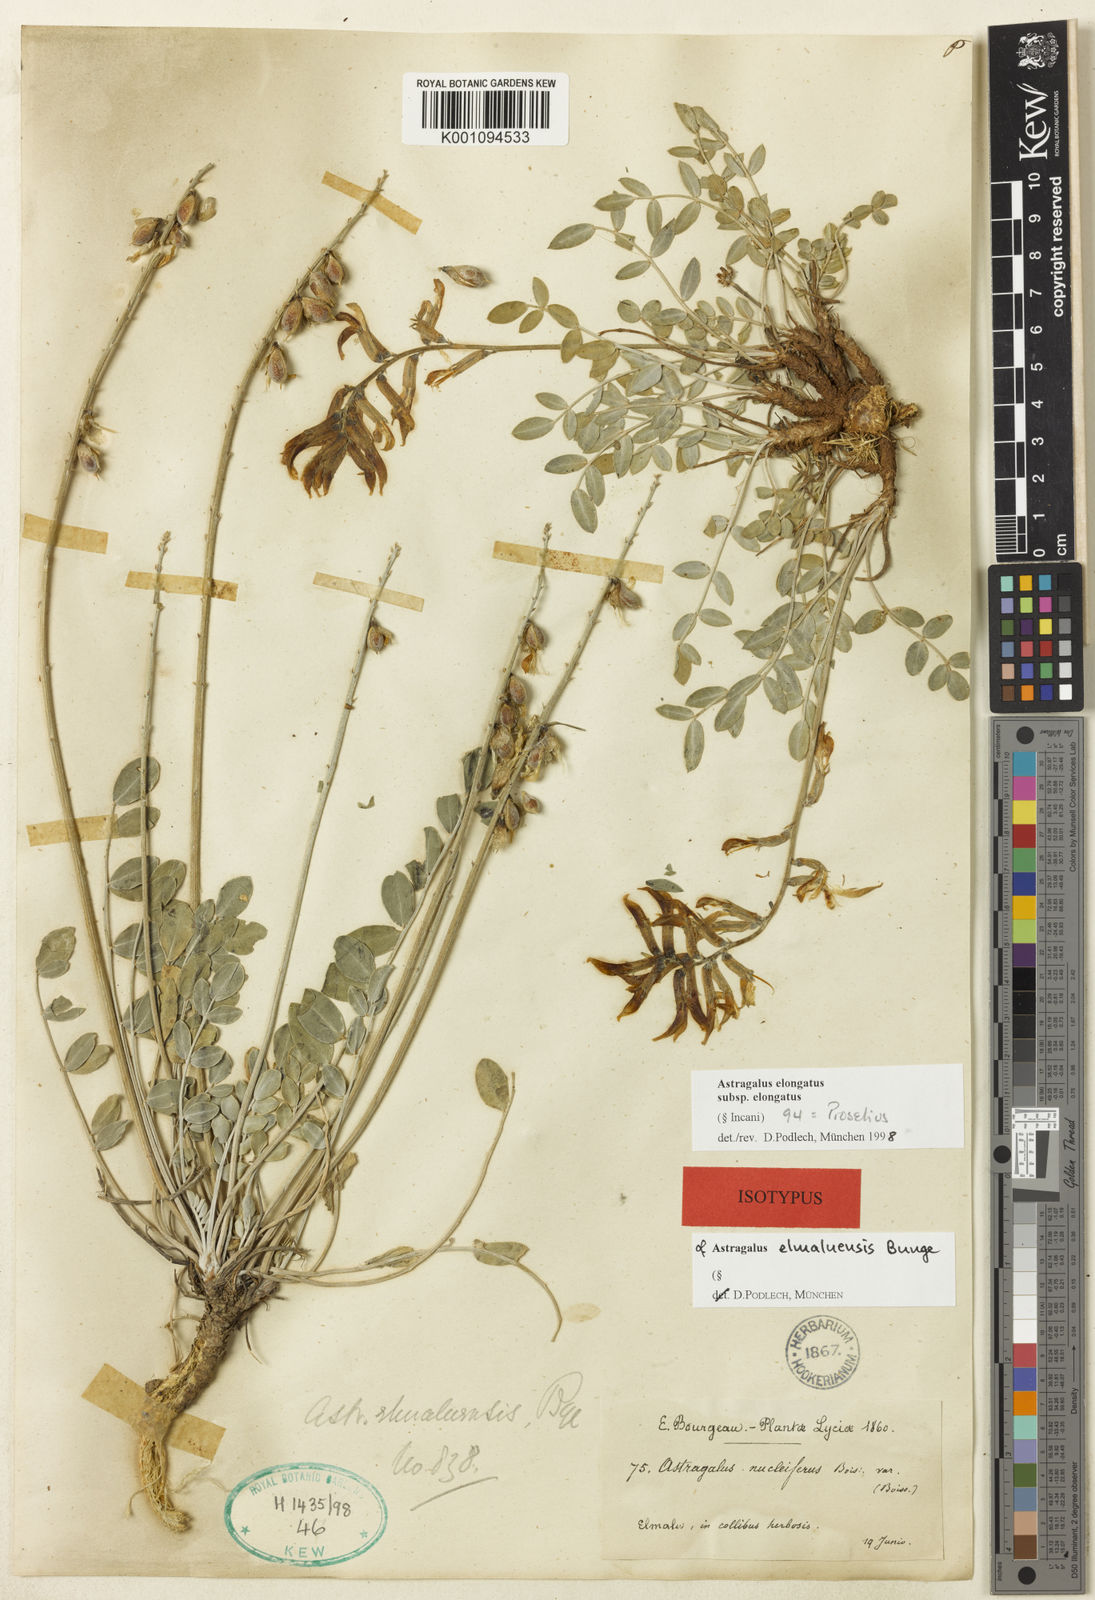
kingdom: Plantae
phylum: Tracheophyta
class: Magnoliopsida
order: Fabales
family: Fabaceae
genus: Astragalus
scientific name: Astragalus elongatus
